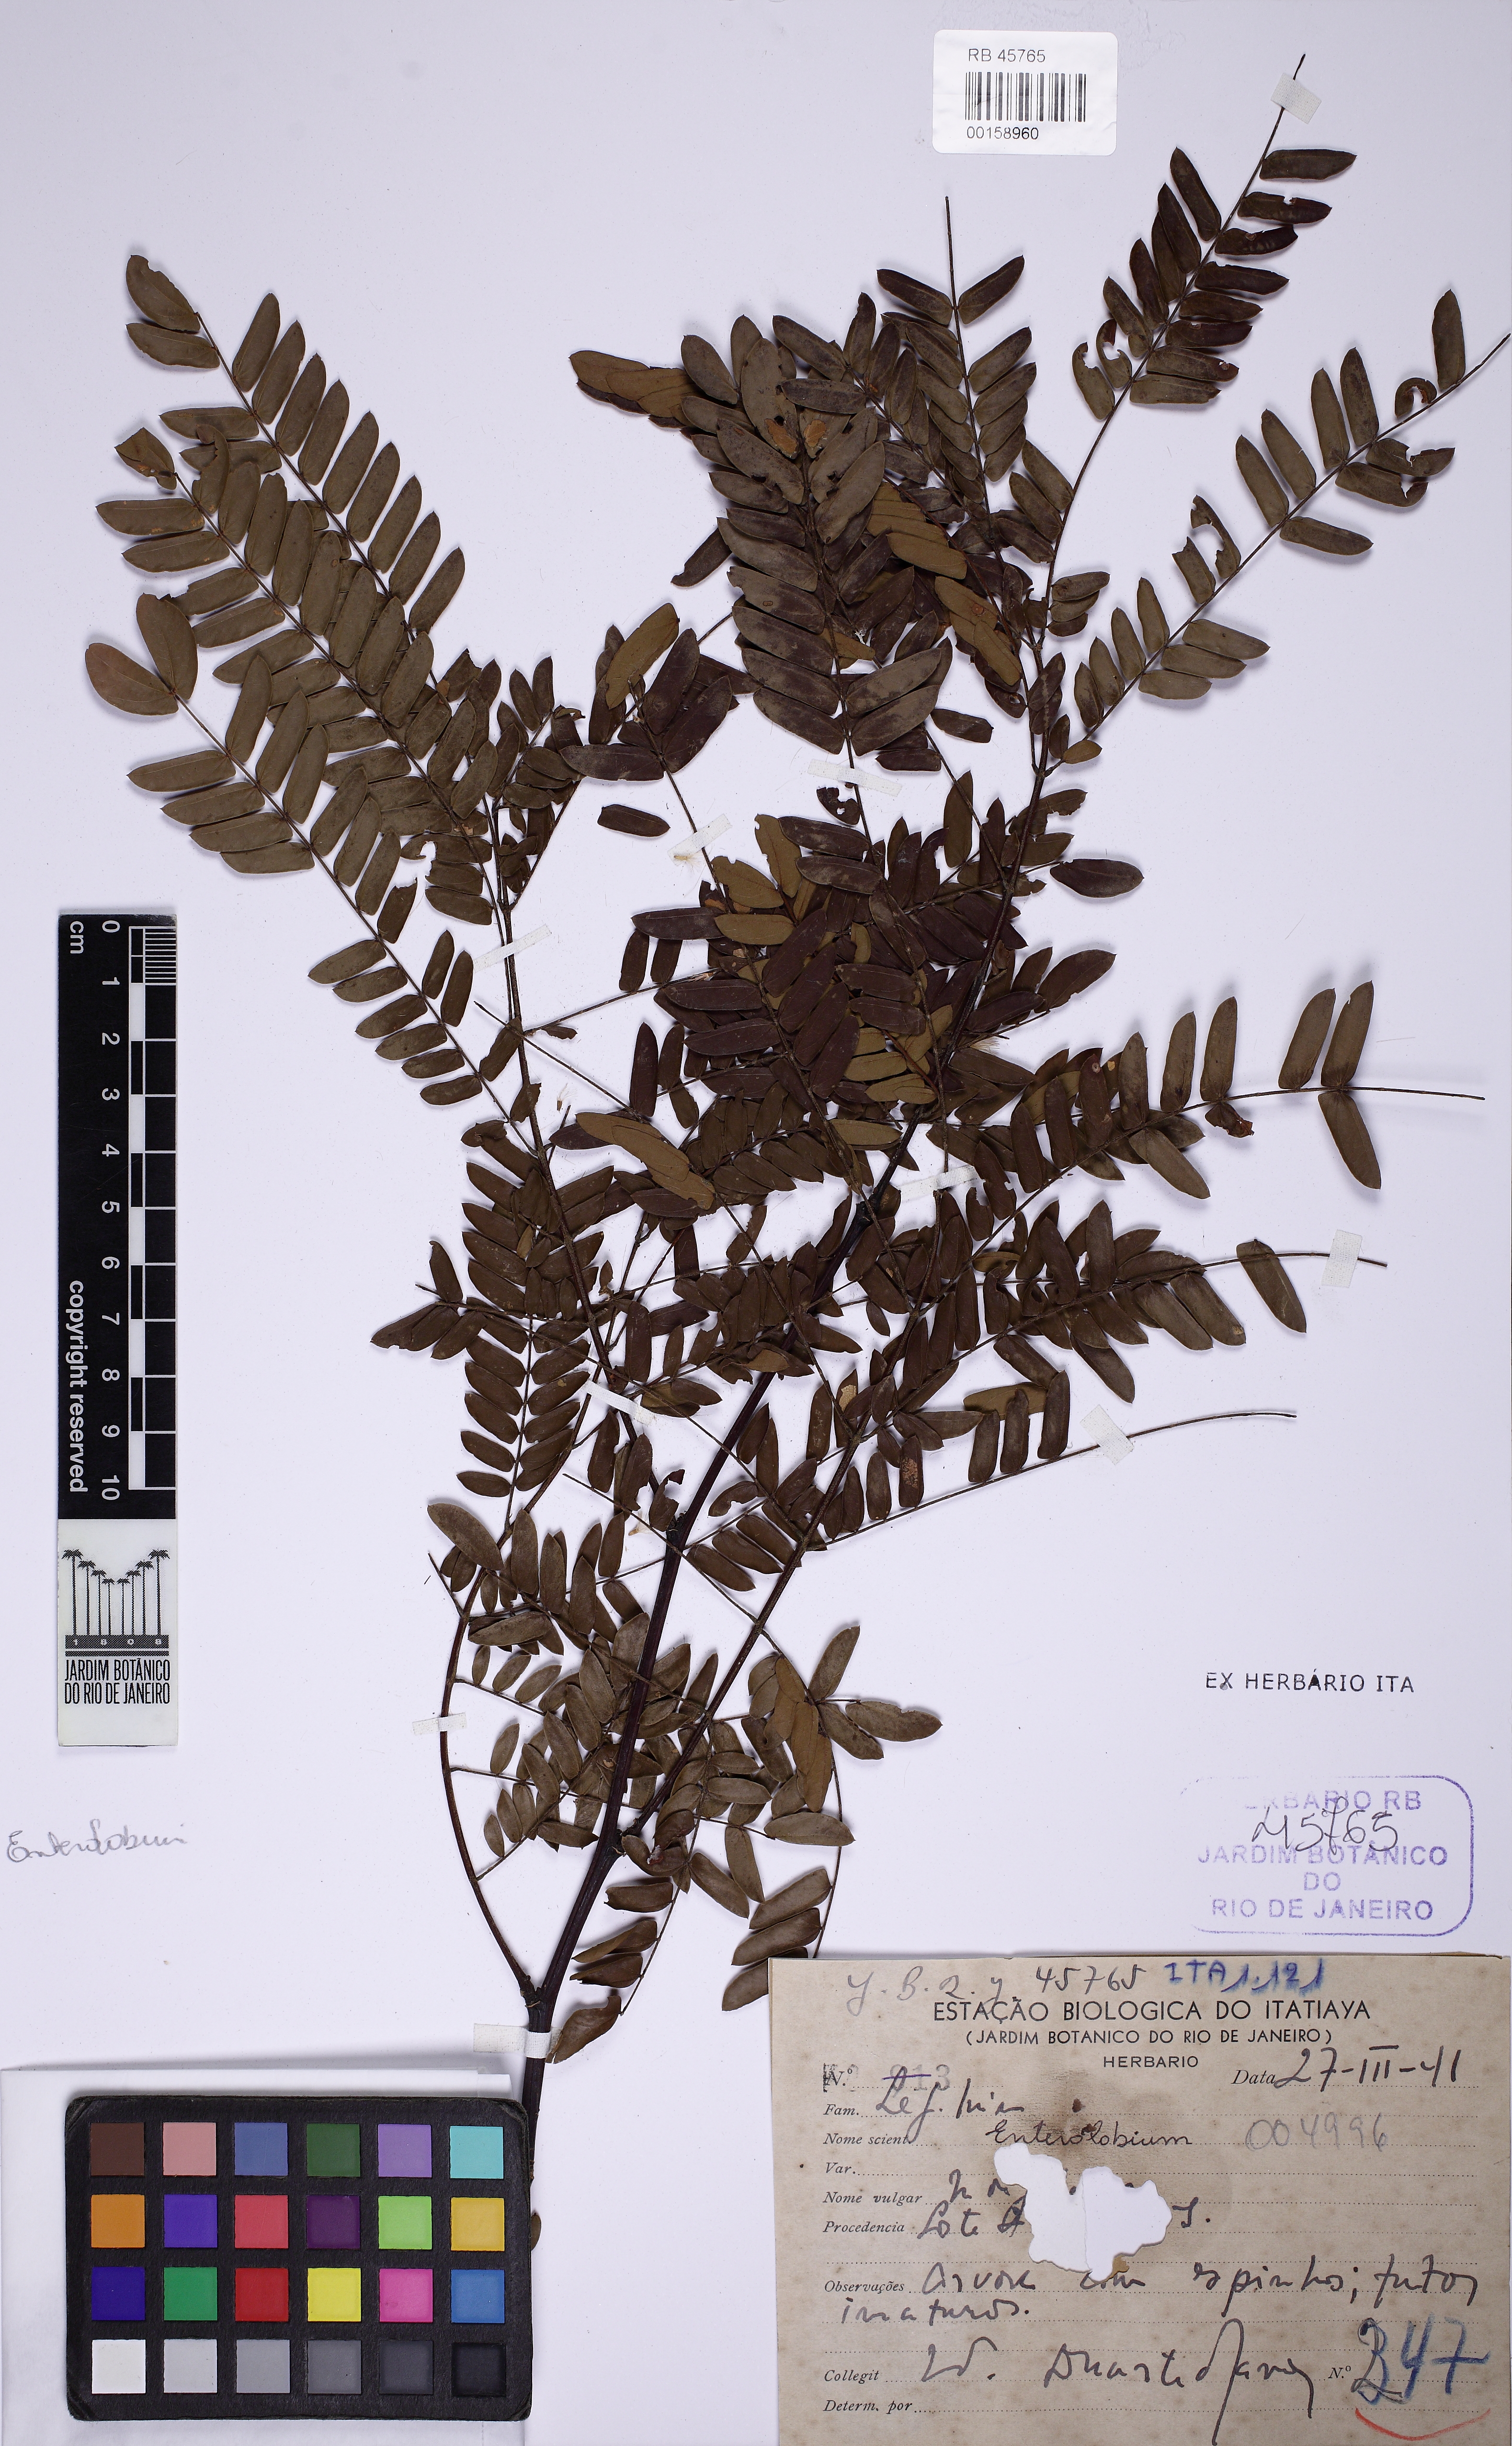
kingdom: Plantae
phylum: Tracheophyta
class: Magnoliopsida
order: Fabales
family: Fabaceae
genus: Senegalia
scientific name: Senegalia giganticarpa
